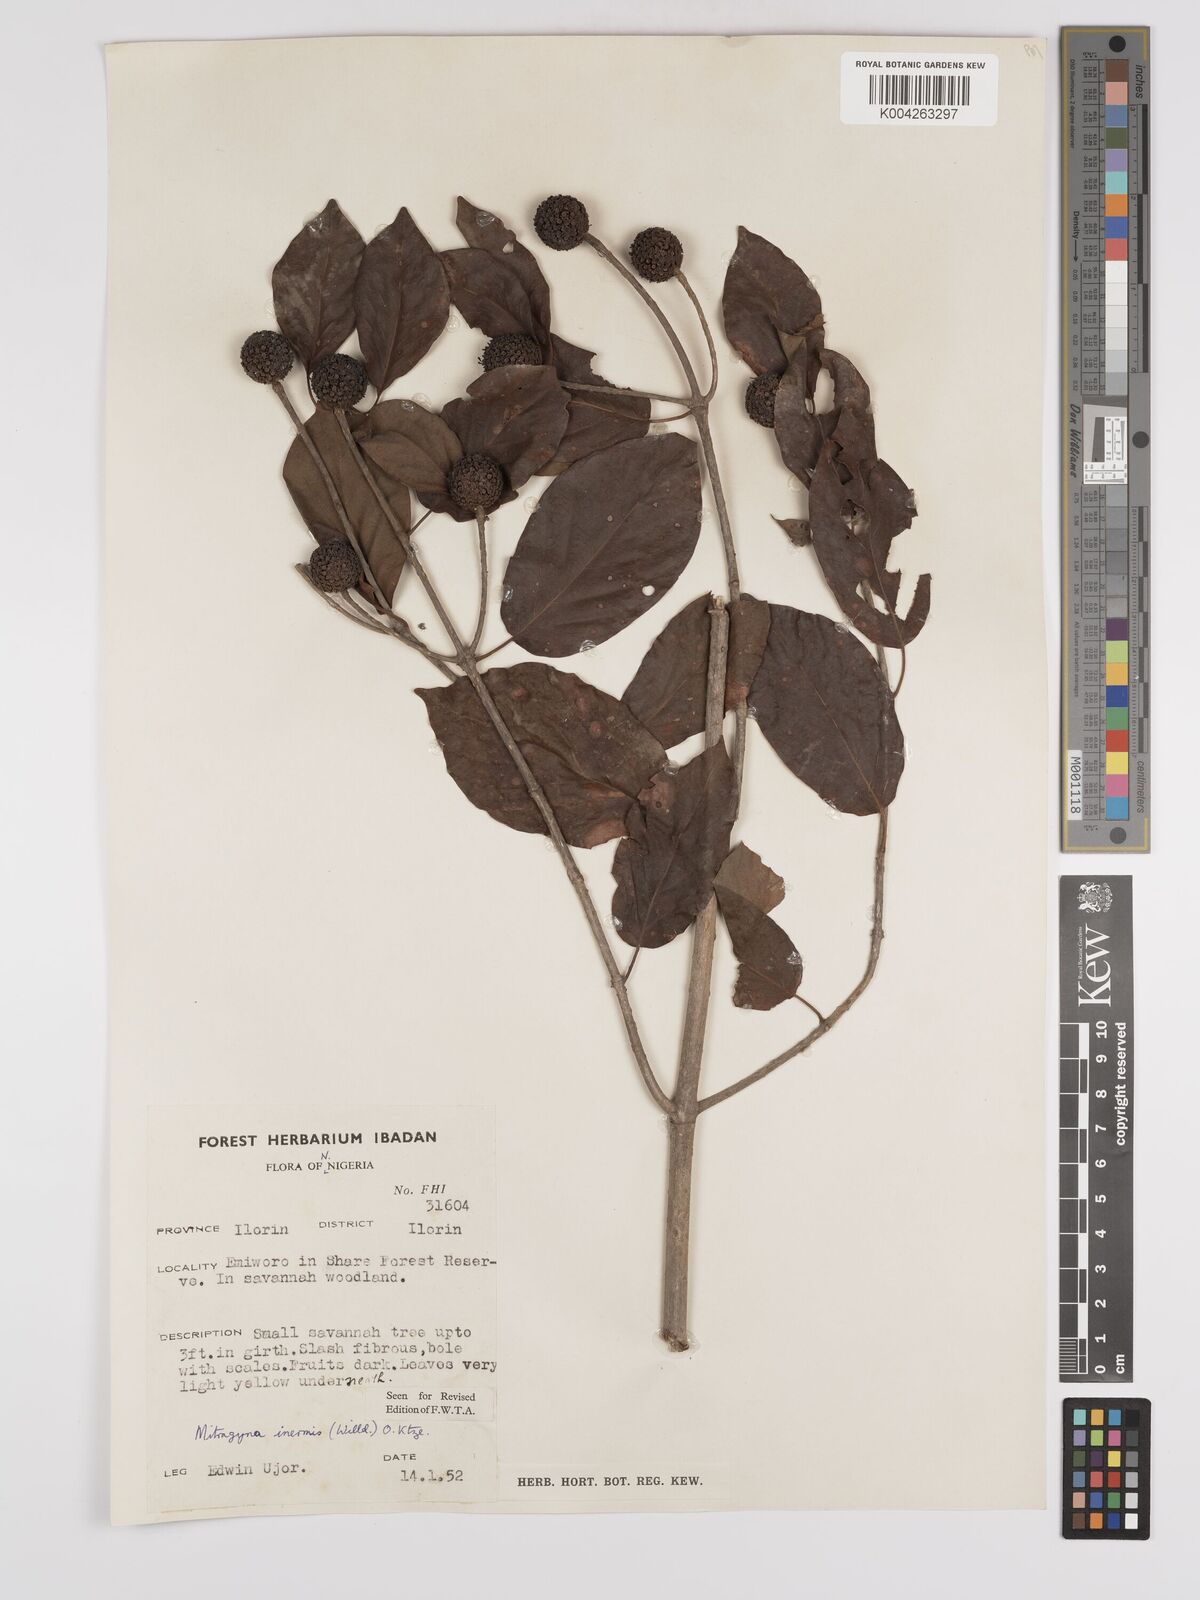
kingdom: Plantae
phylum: Tracheophyta
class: Magnoliopsida
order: Gentianales
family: Rubiaceae
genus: Mitragyna
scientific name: Mitragyna inermis
